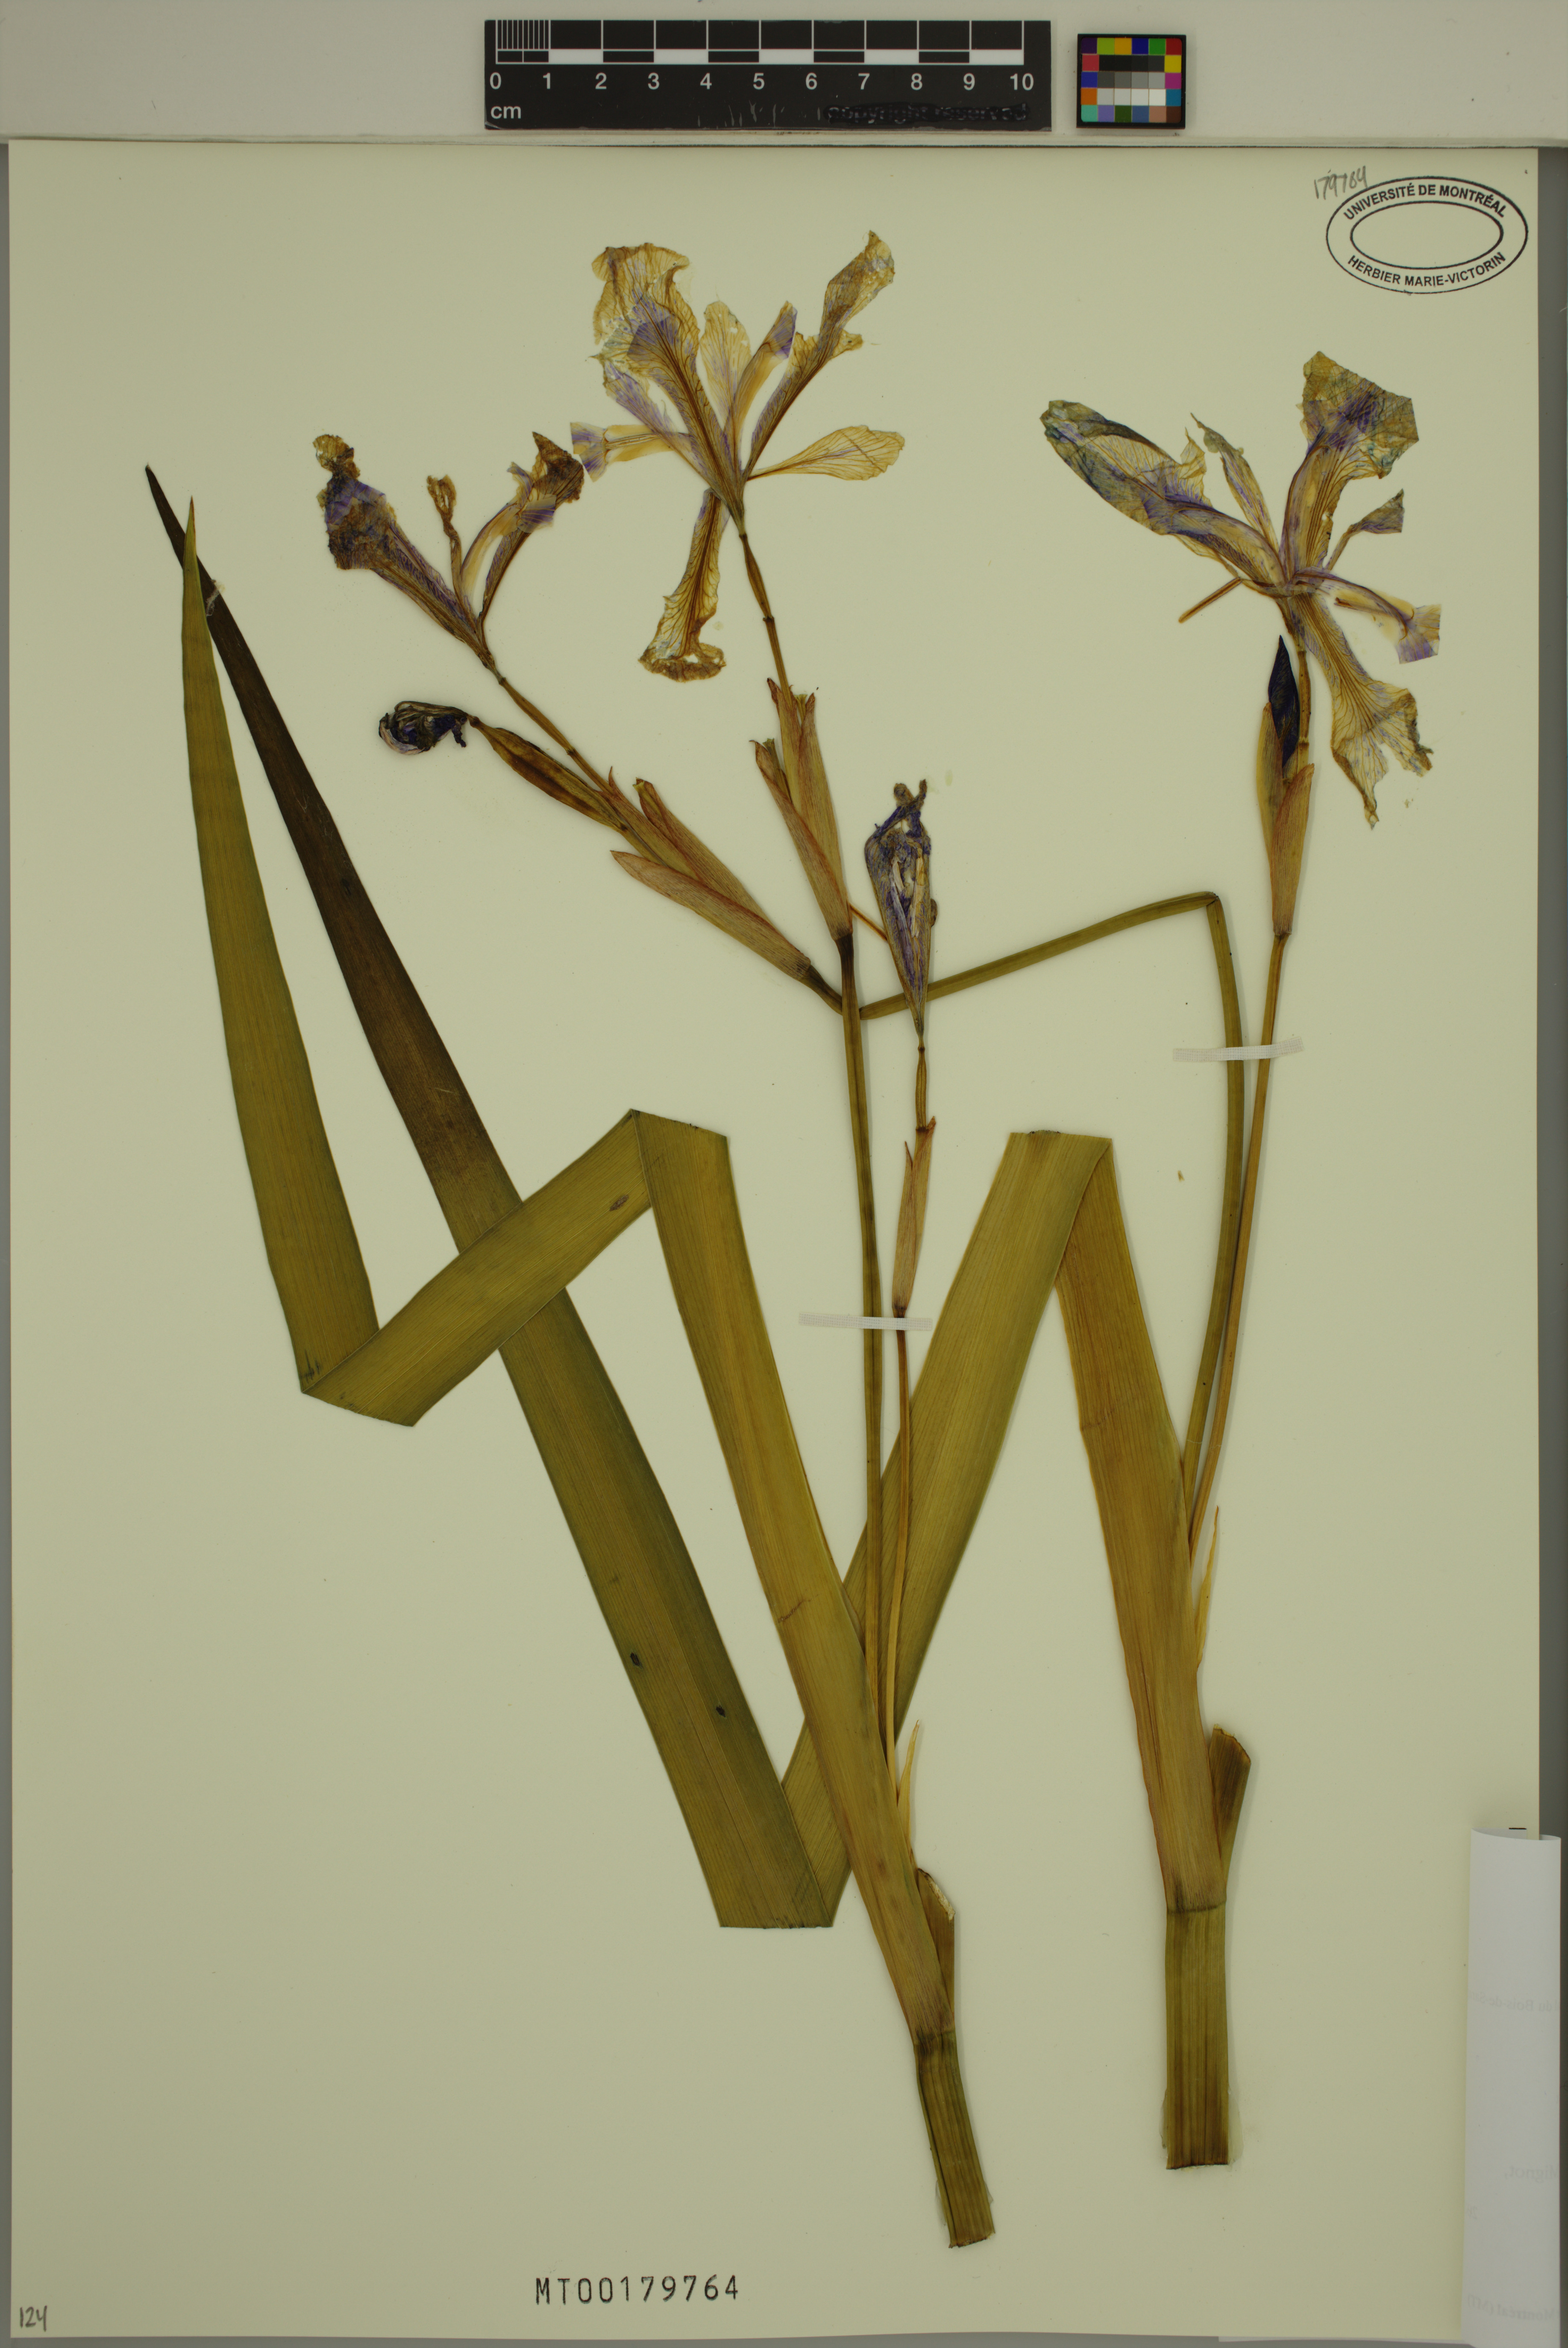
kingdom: Plantae
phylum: Tracheophyta
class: Liliopsida
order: Asparagales
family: Iridaceae
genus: Iris
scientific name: Iris versicolor
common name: Purple iris
